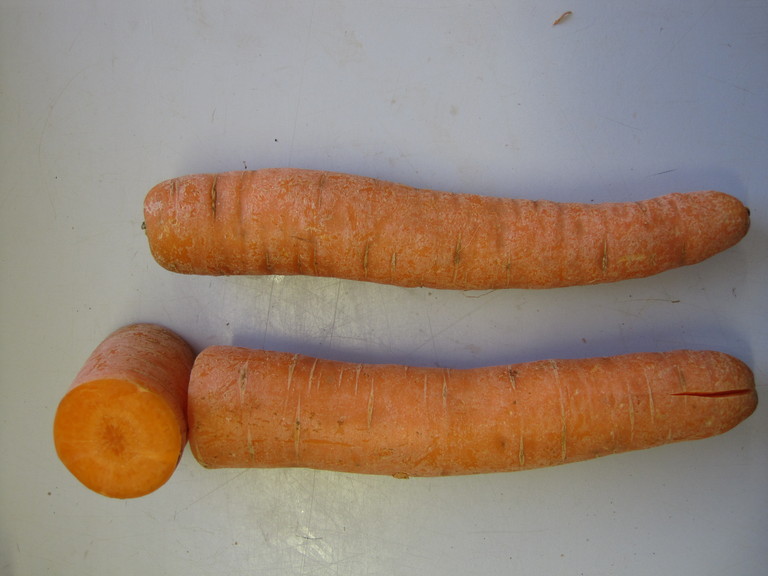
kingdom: Plantae
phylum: Tracheophyta
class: Magnoliopsida
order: Apiales
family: Apiaceae
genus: Daucus
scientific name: Daucus carota
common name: Wild carrot
